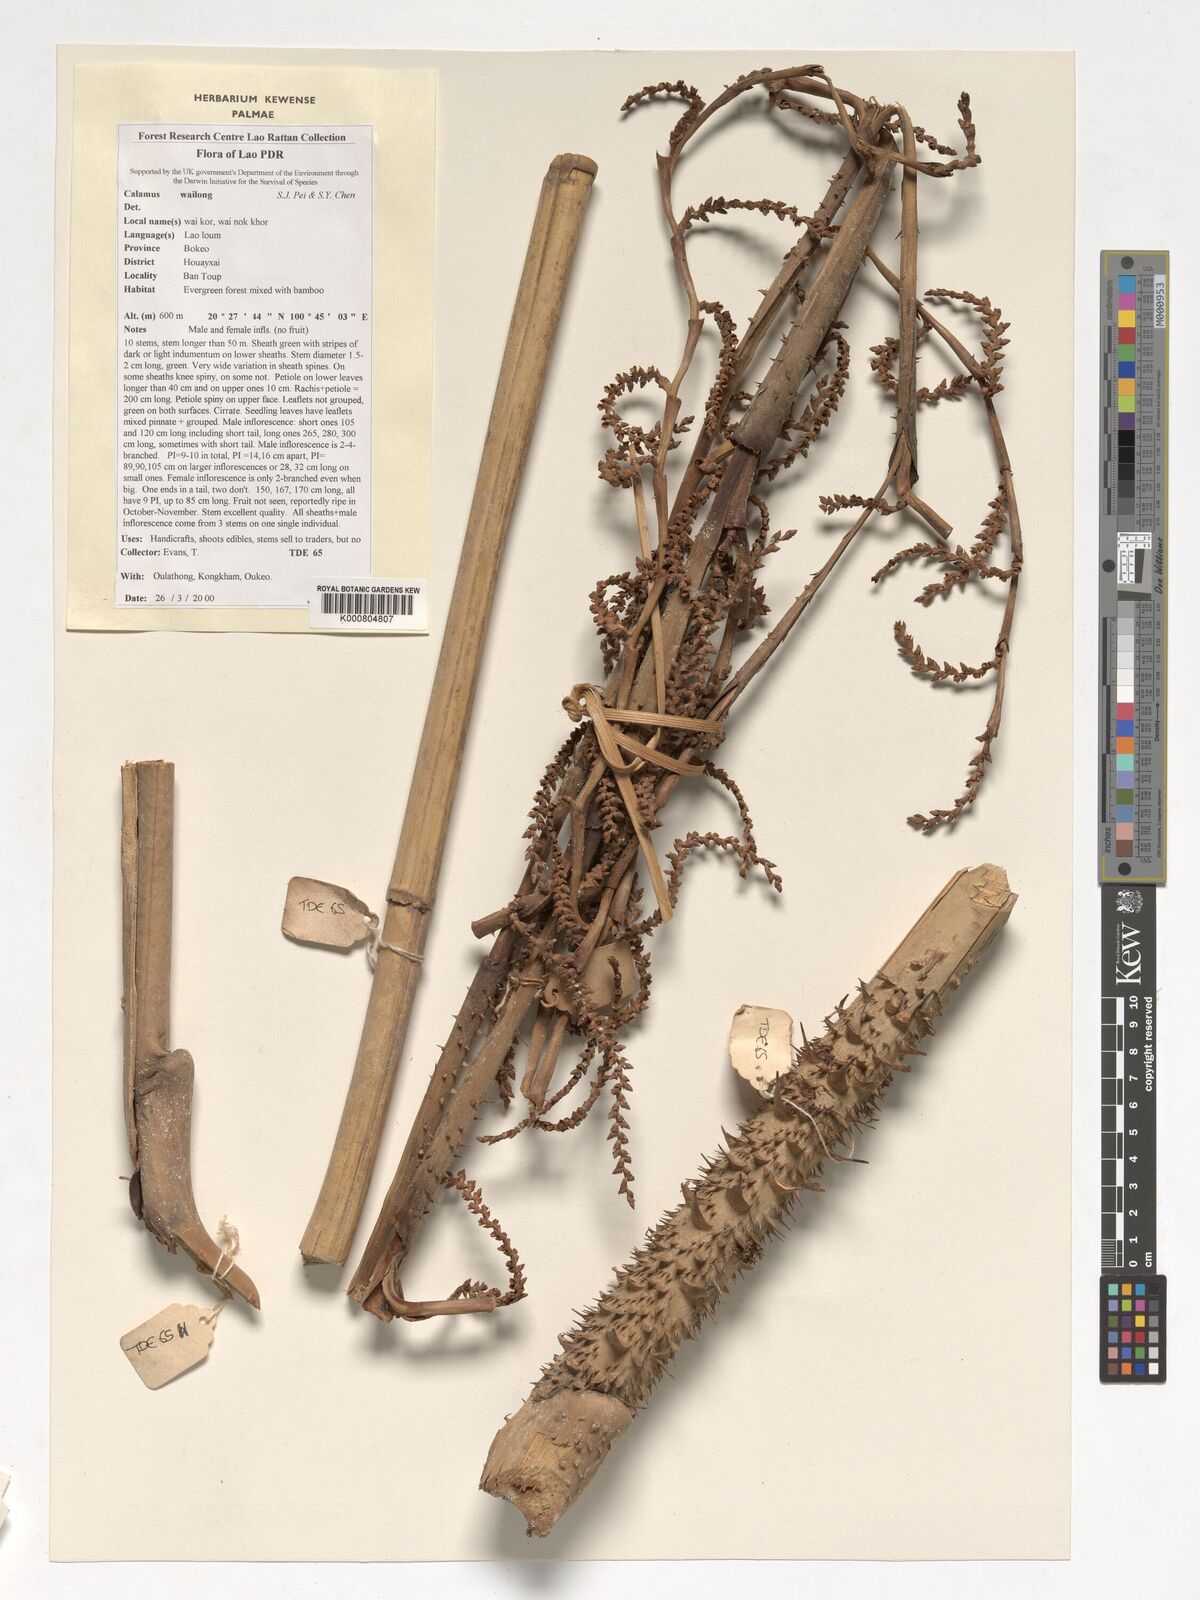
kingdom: Plantae
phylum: Tracheophyta
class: Liliopsida
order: Arecales
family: Arecaceae
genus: Calamus
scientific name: Calamus inermis
